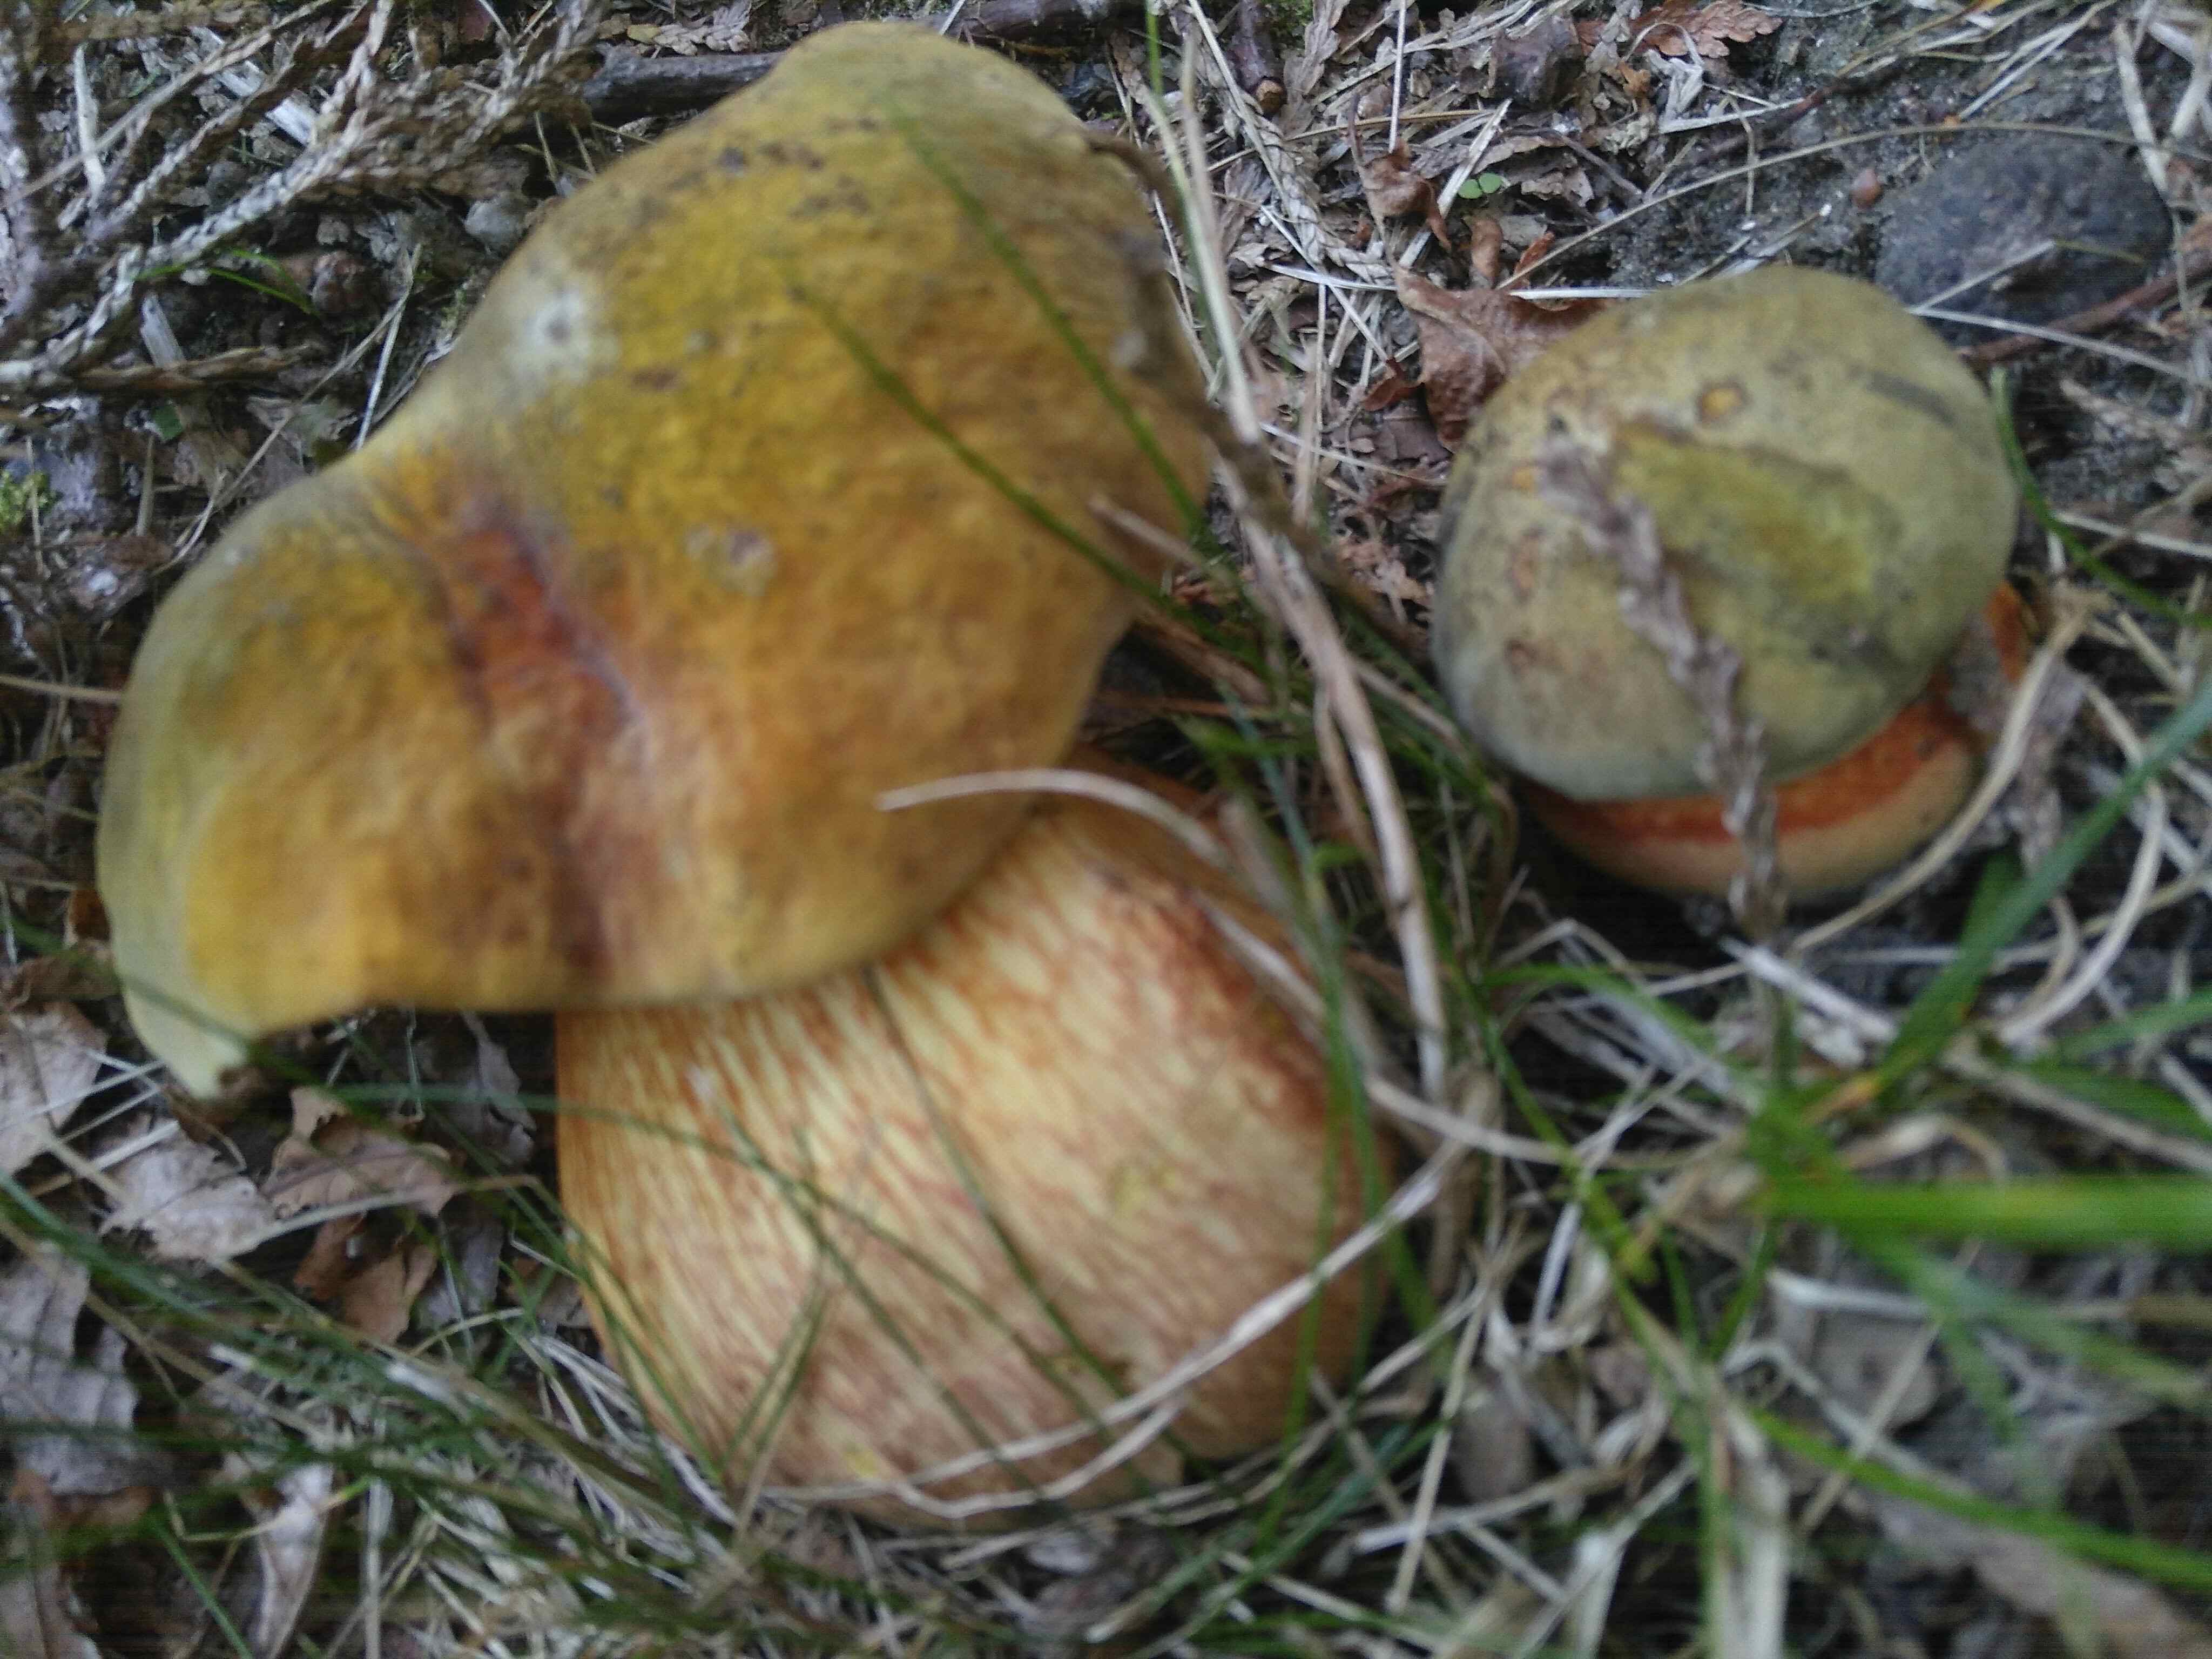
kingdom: Fungi
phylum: Basidiomycota
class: Agaricomycetes
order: Boletales
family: Boletaceae
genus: Suillellus
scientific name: Suillellus luridus
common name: netstokket indigorørhat
